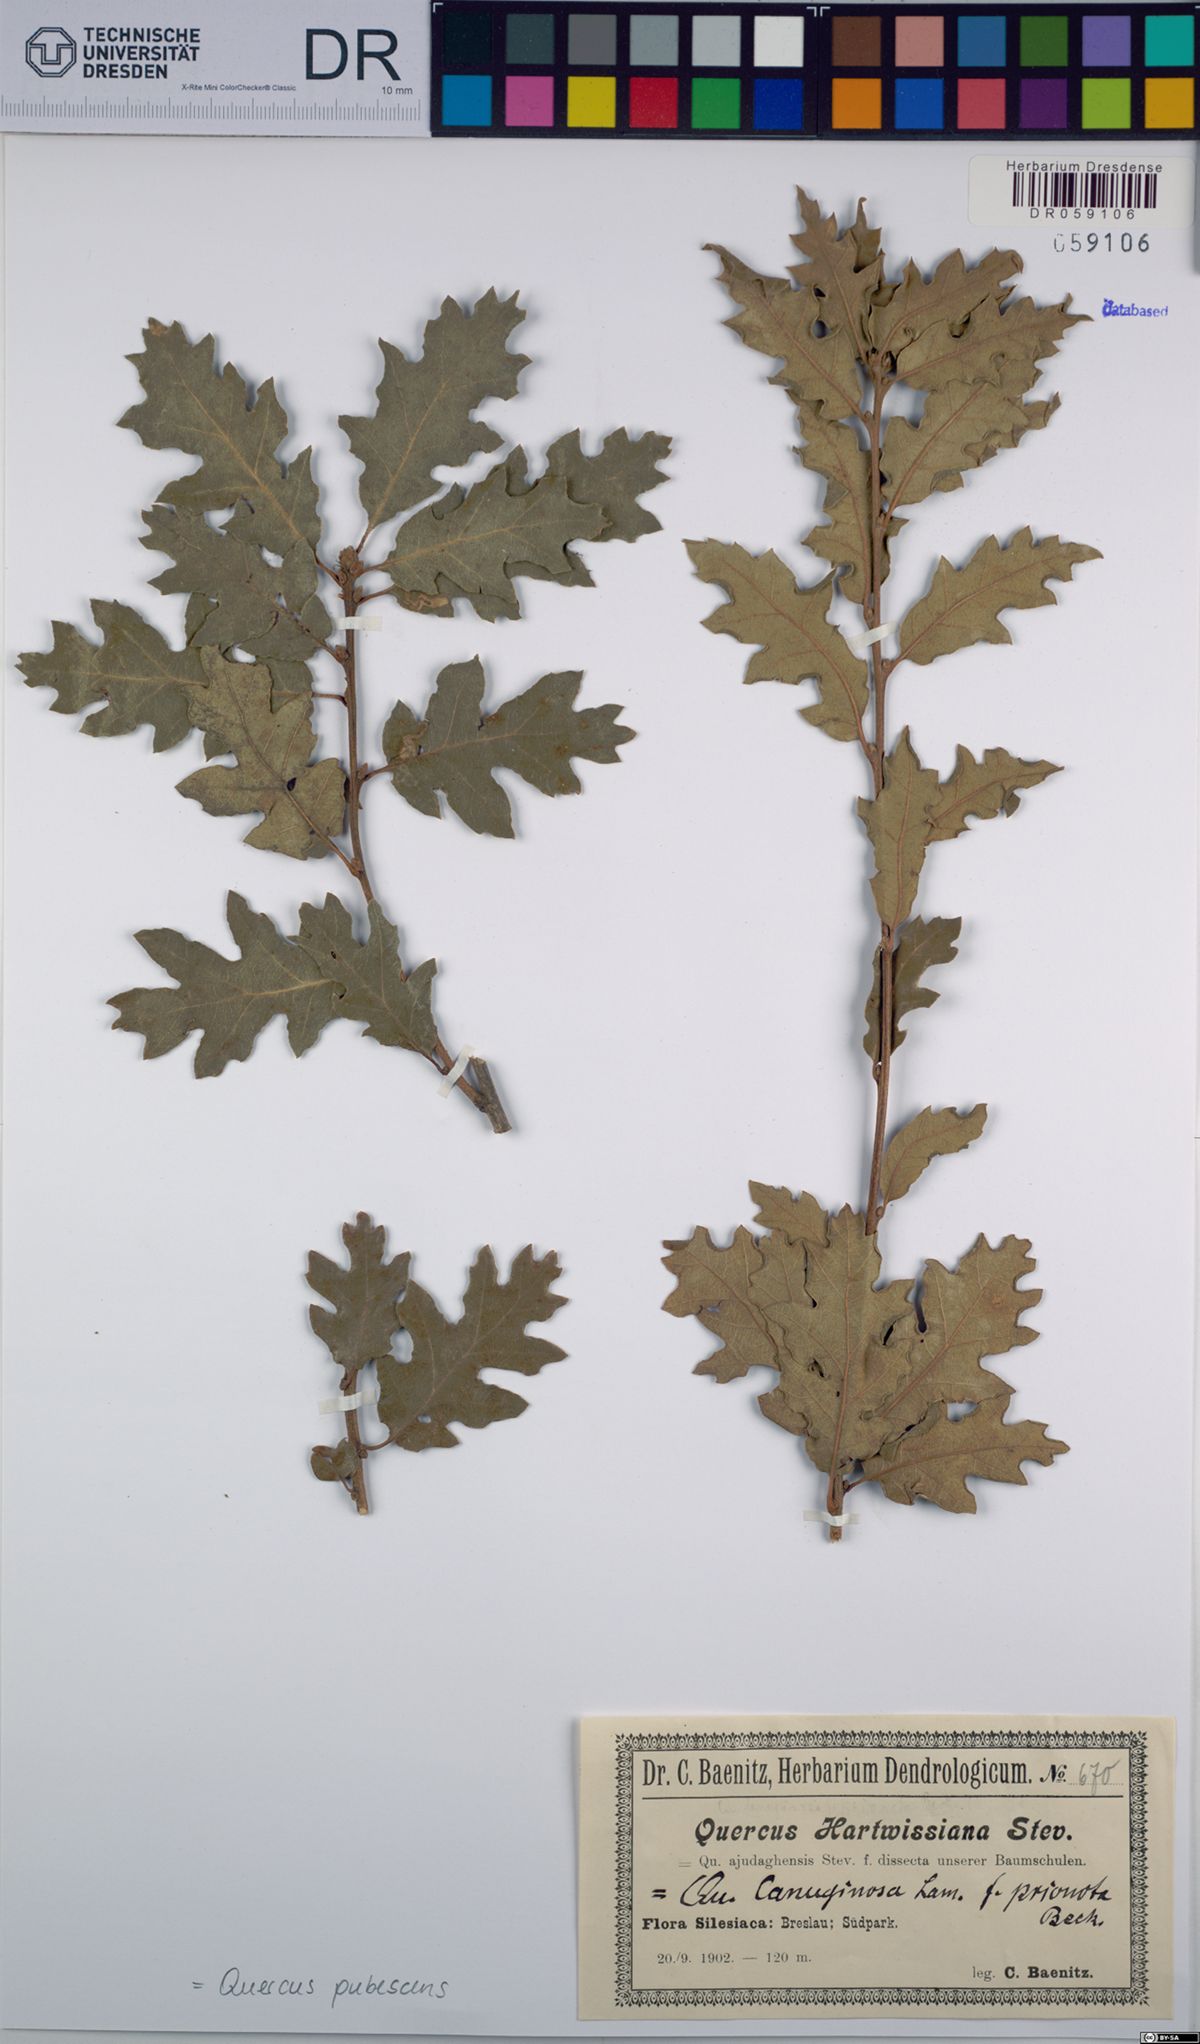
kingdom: Plantae
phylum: Tracheophyta
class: Magnoliopsida
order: Fagales
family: Fagaceae
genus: Quercus
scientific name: Quercus pubescens
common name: Downy oak
